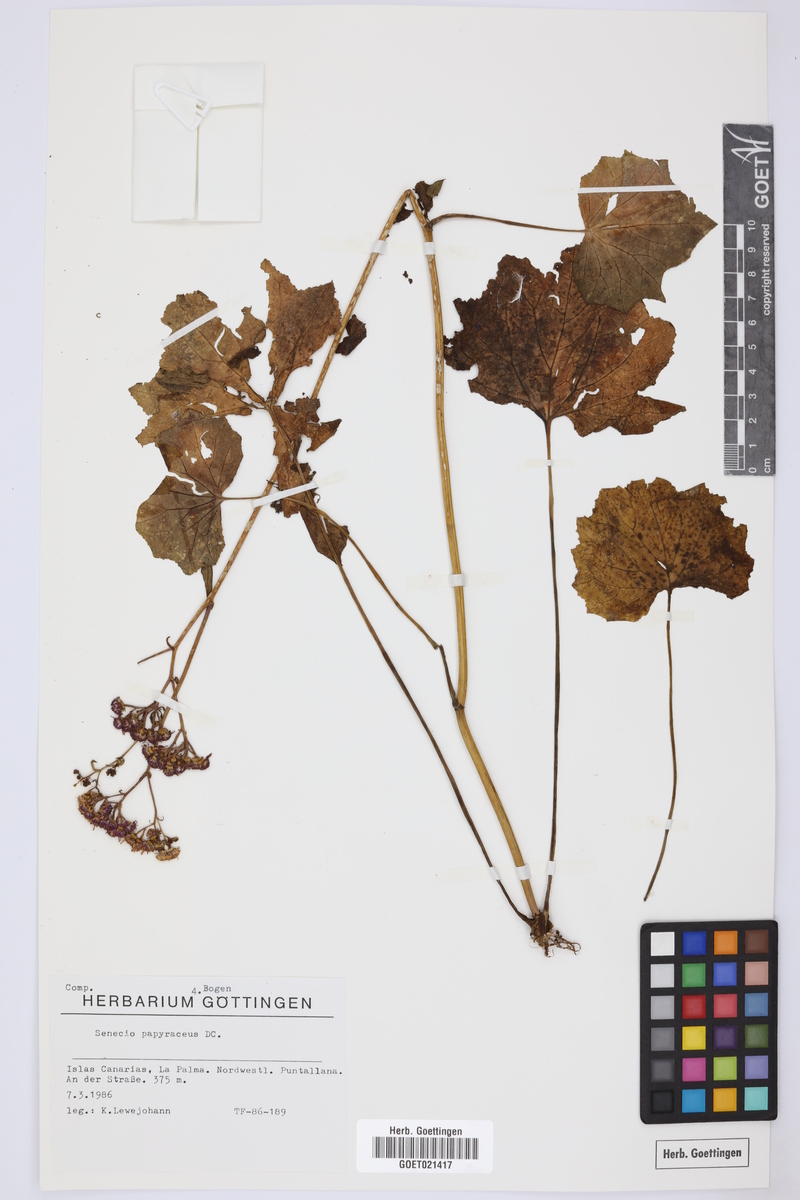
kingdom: Plantae
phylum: Tracheophyta
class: Magnoliopsida
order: Asterales
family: Asteraceae
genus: Pericallis
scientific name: Pericallis papyracea
